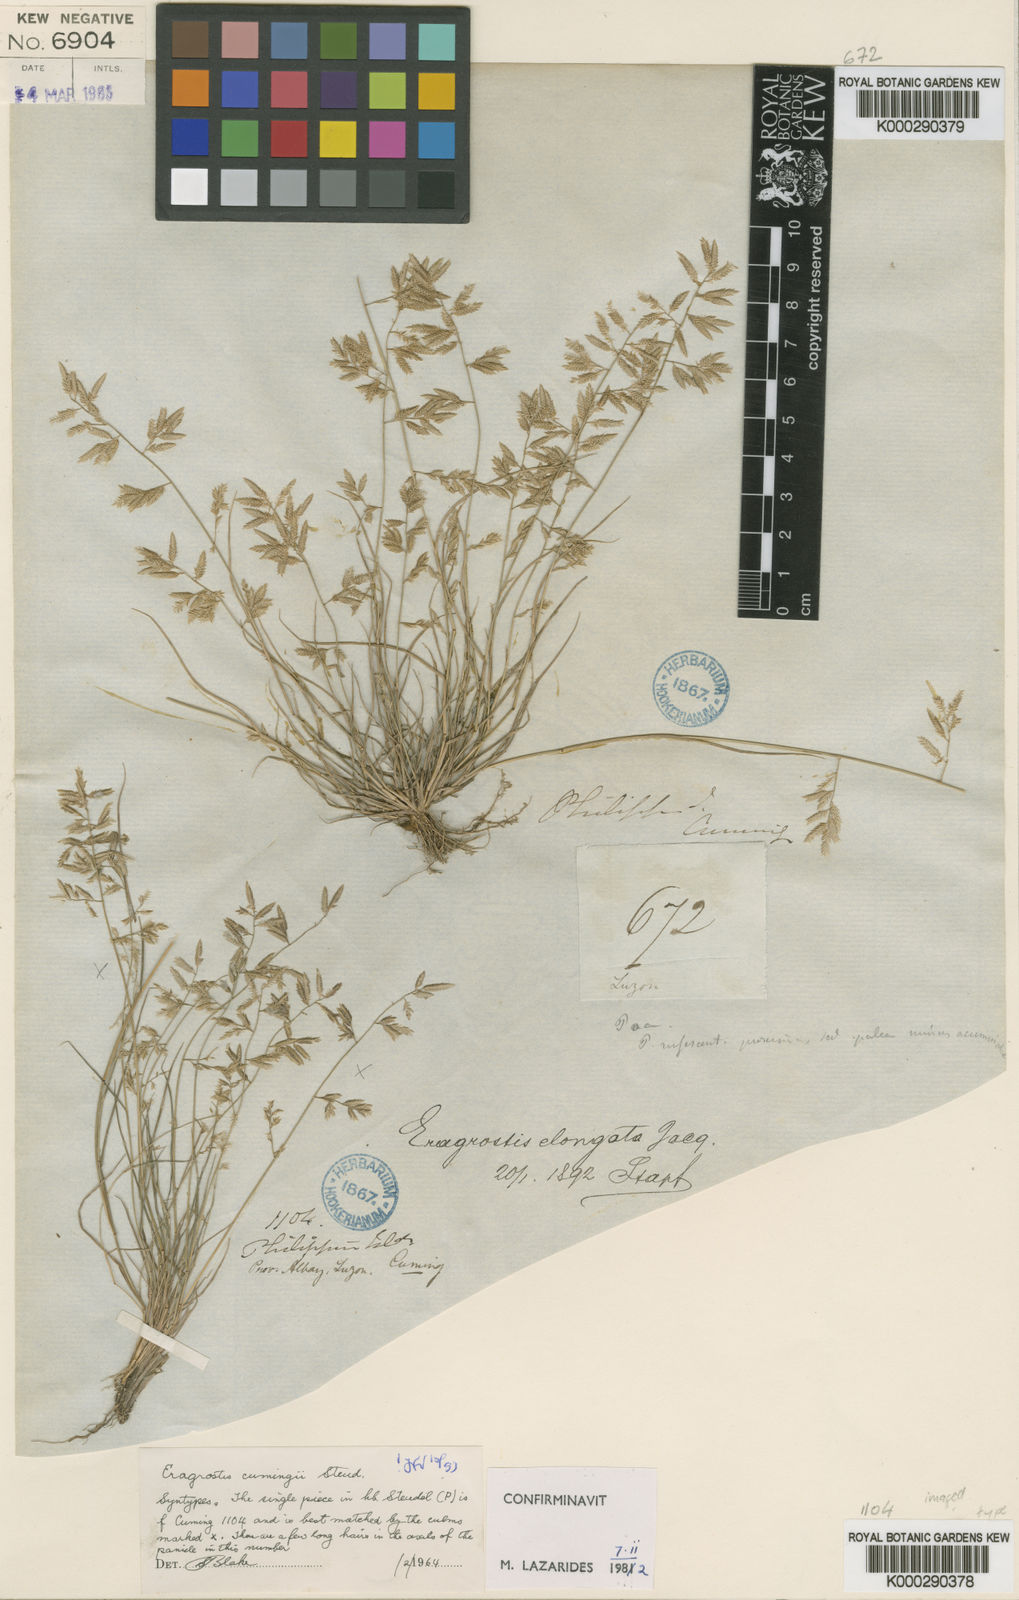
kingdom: Plantae
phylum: Tracheophyta
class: Liliopsida
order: Poales
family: Poaceae
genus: Eragrostis
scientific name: Eragrostis cumingii
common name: Cuming's lovegrass
